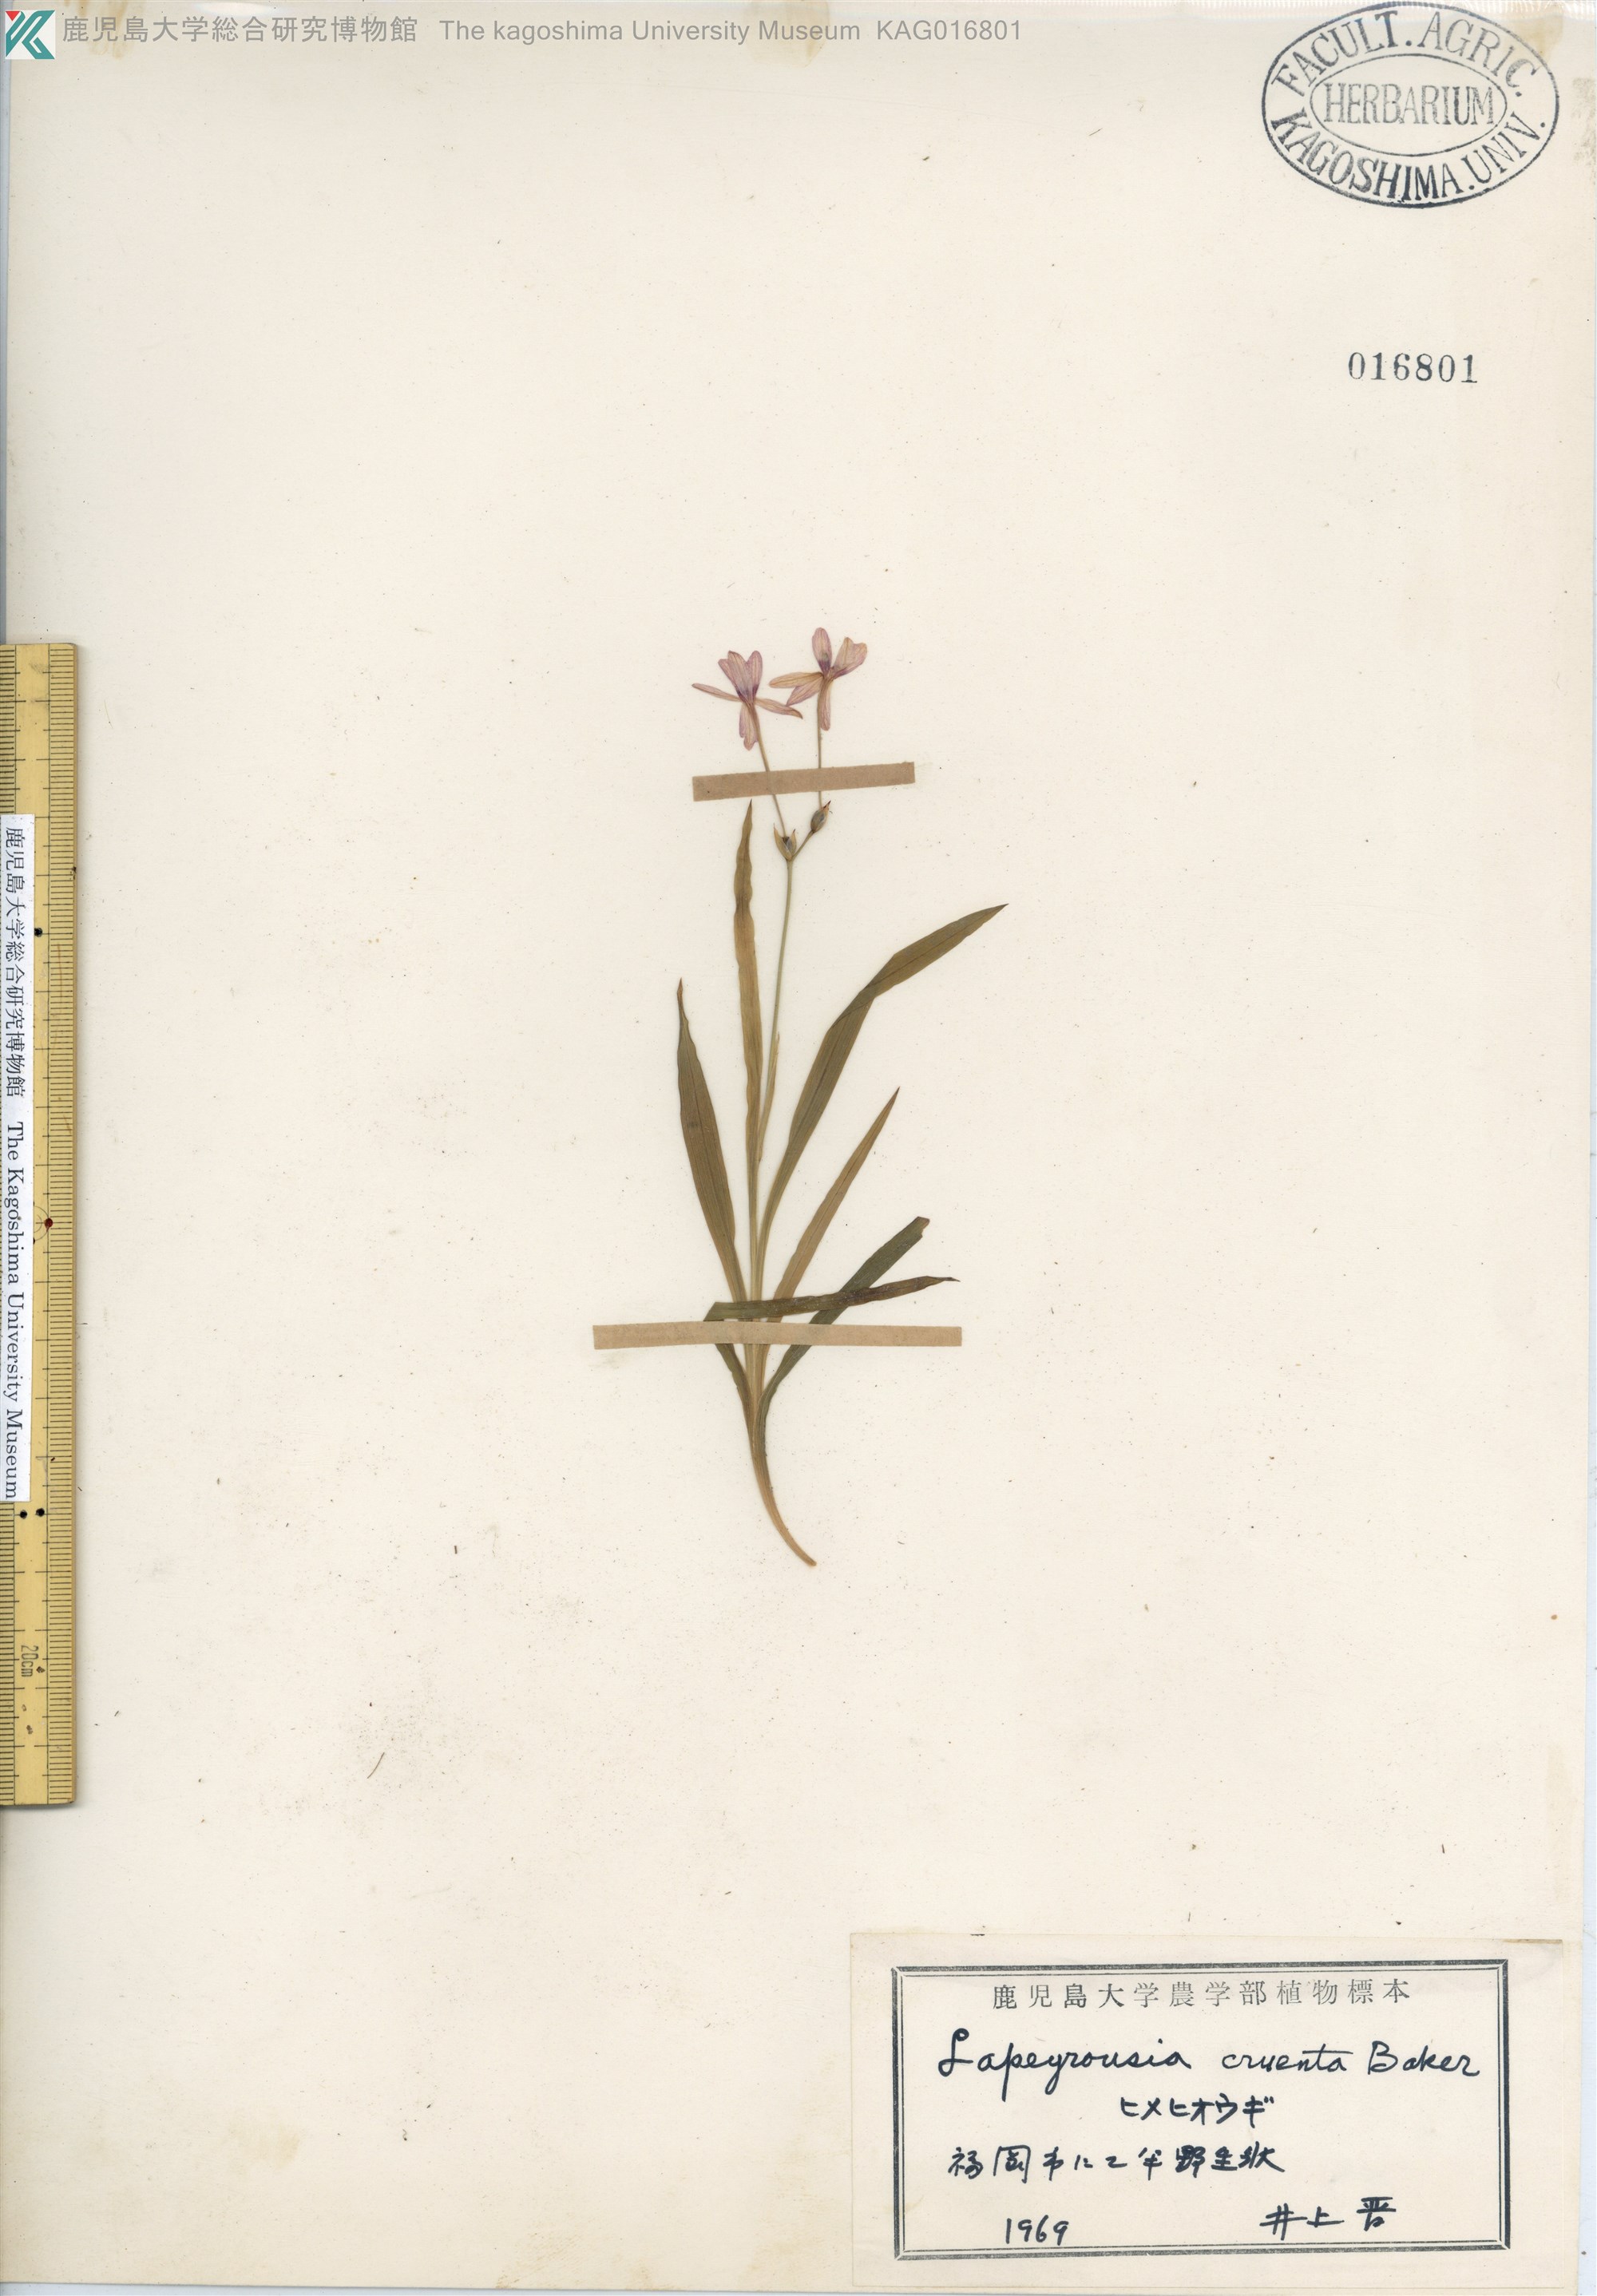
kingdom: Plantae
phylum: Tracheophyta
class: Liliopsida
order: Asparagales
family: Iridaceae
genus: Freesia
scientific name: Freesia laxa
